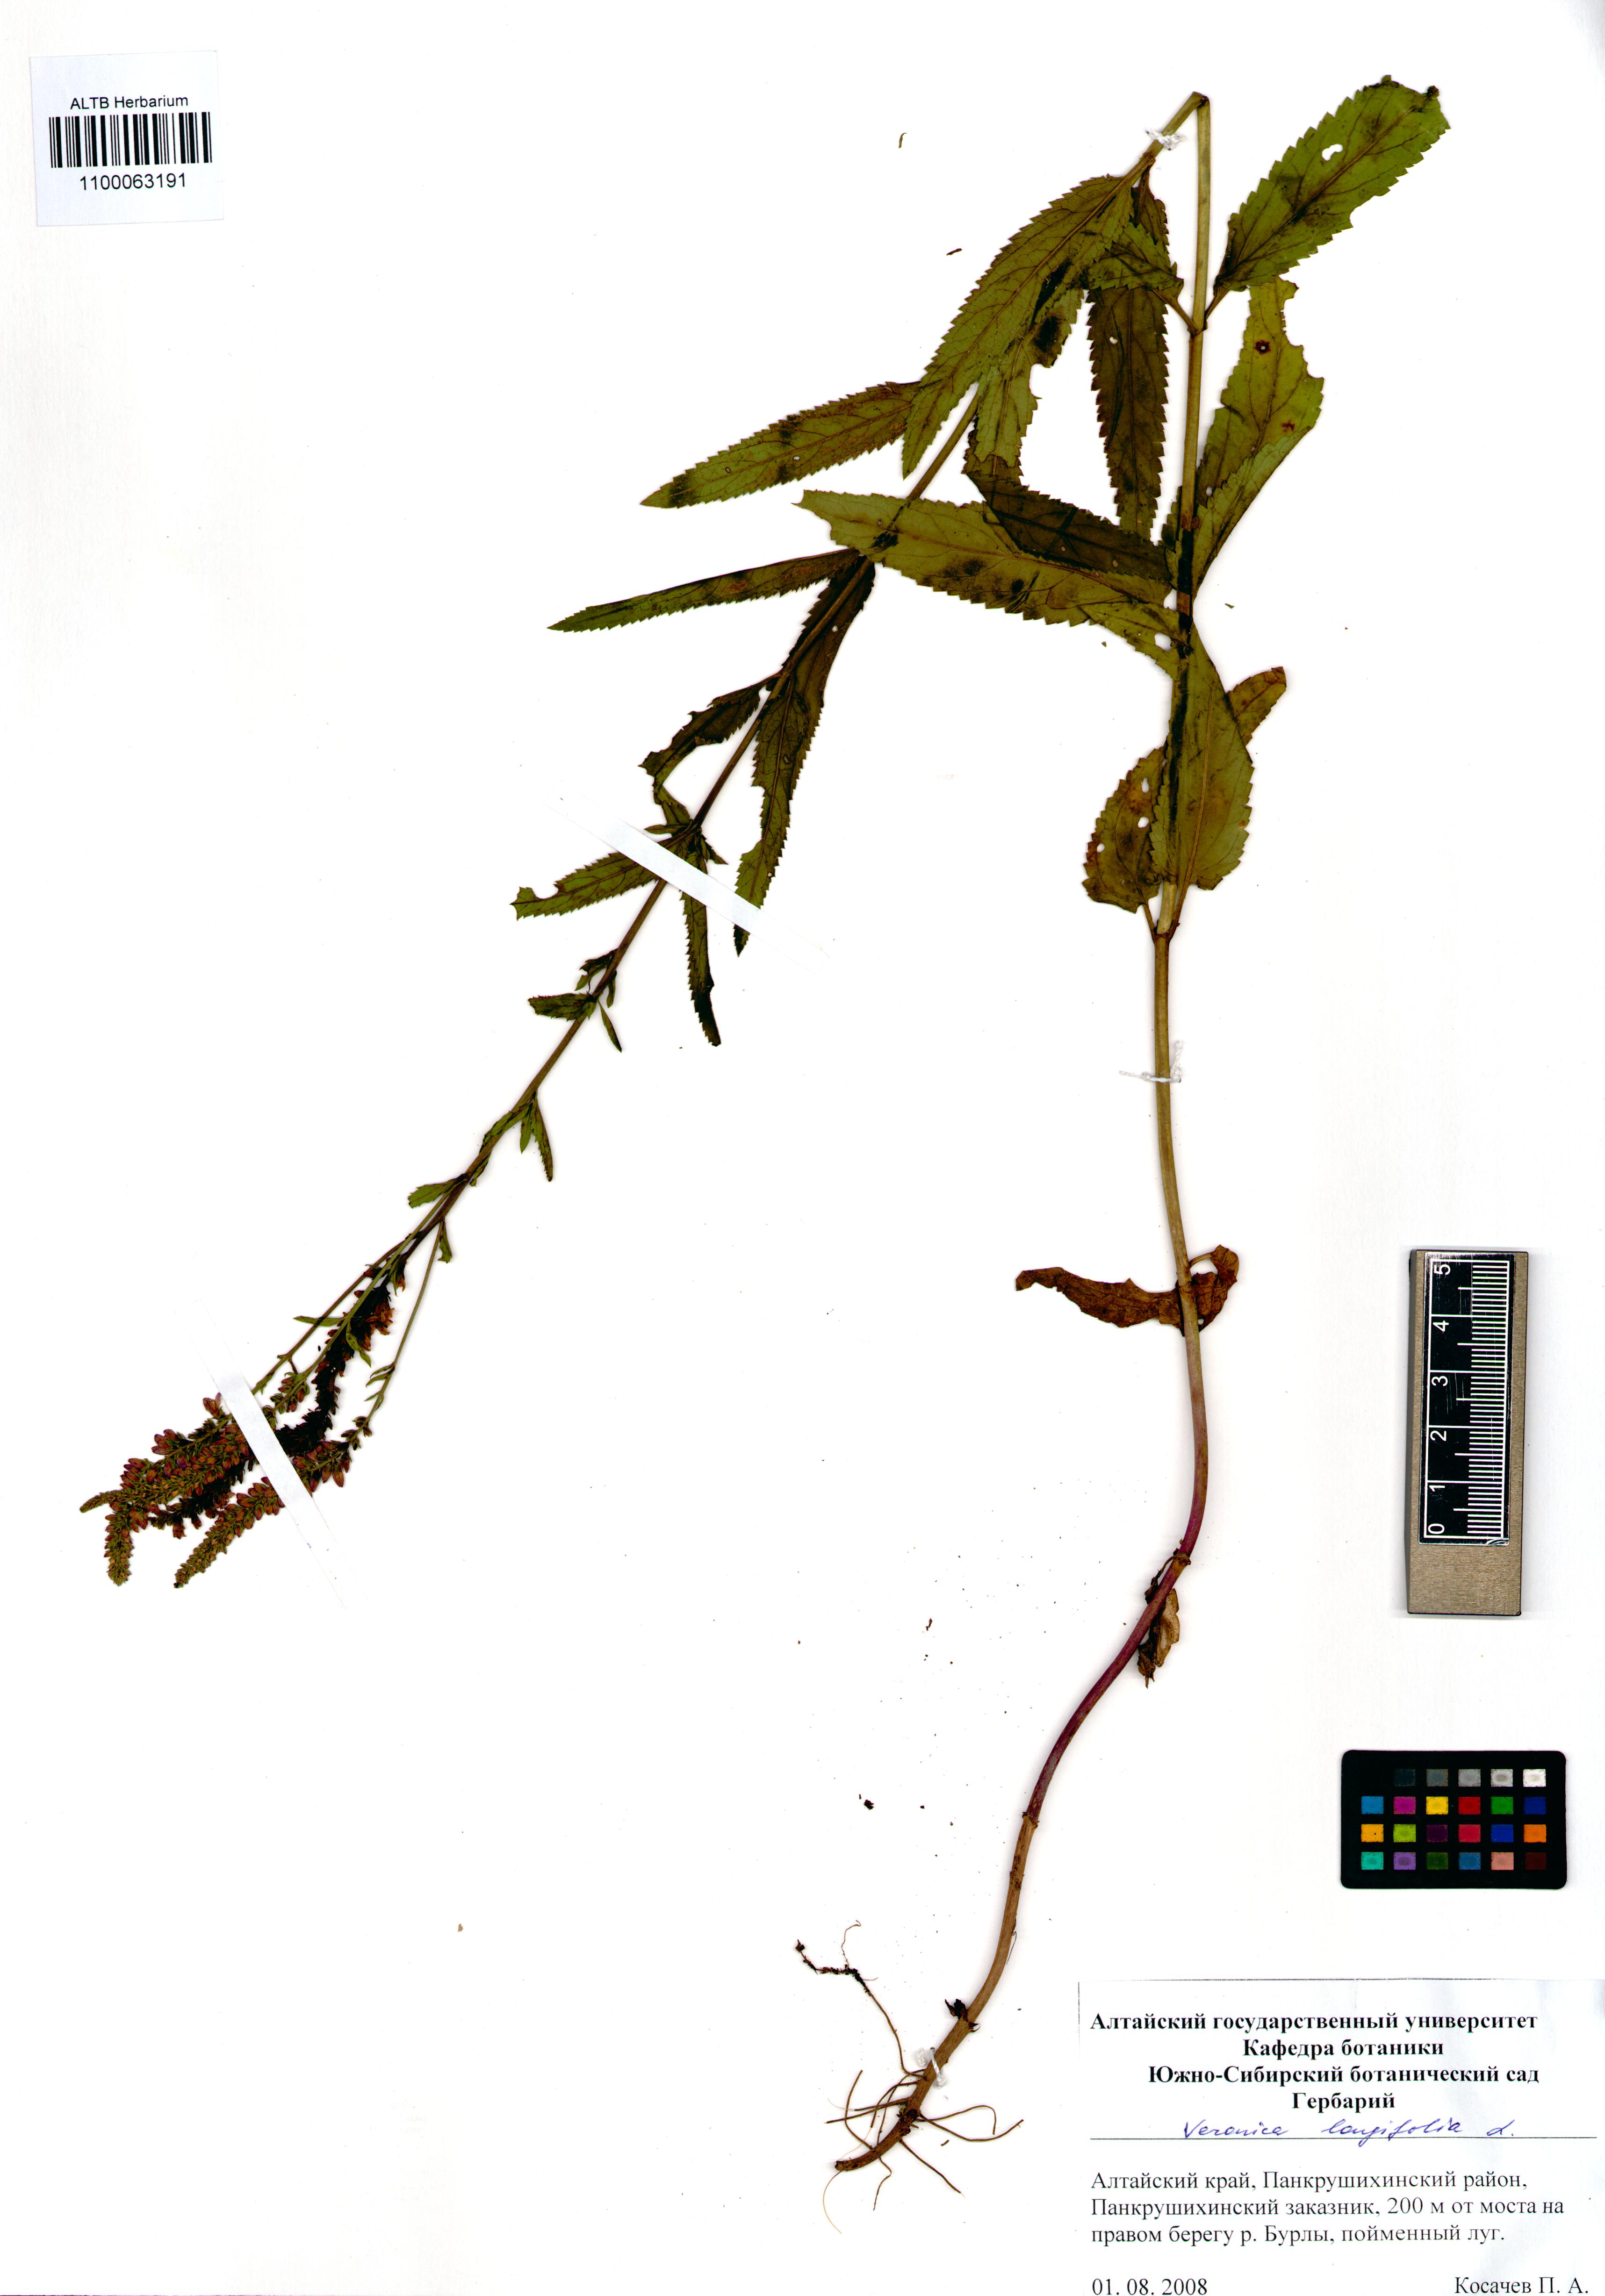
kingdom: Plantae
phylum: Tracheophyta
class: Magnoliopsida
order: Lamiales
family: Plantaginaceae
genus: Veronica
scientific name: Veronica longifolia
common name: Garden speedwell
